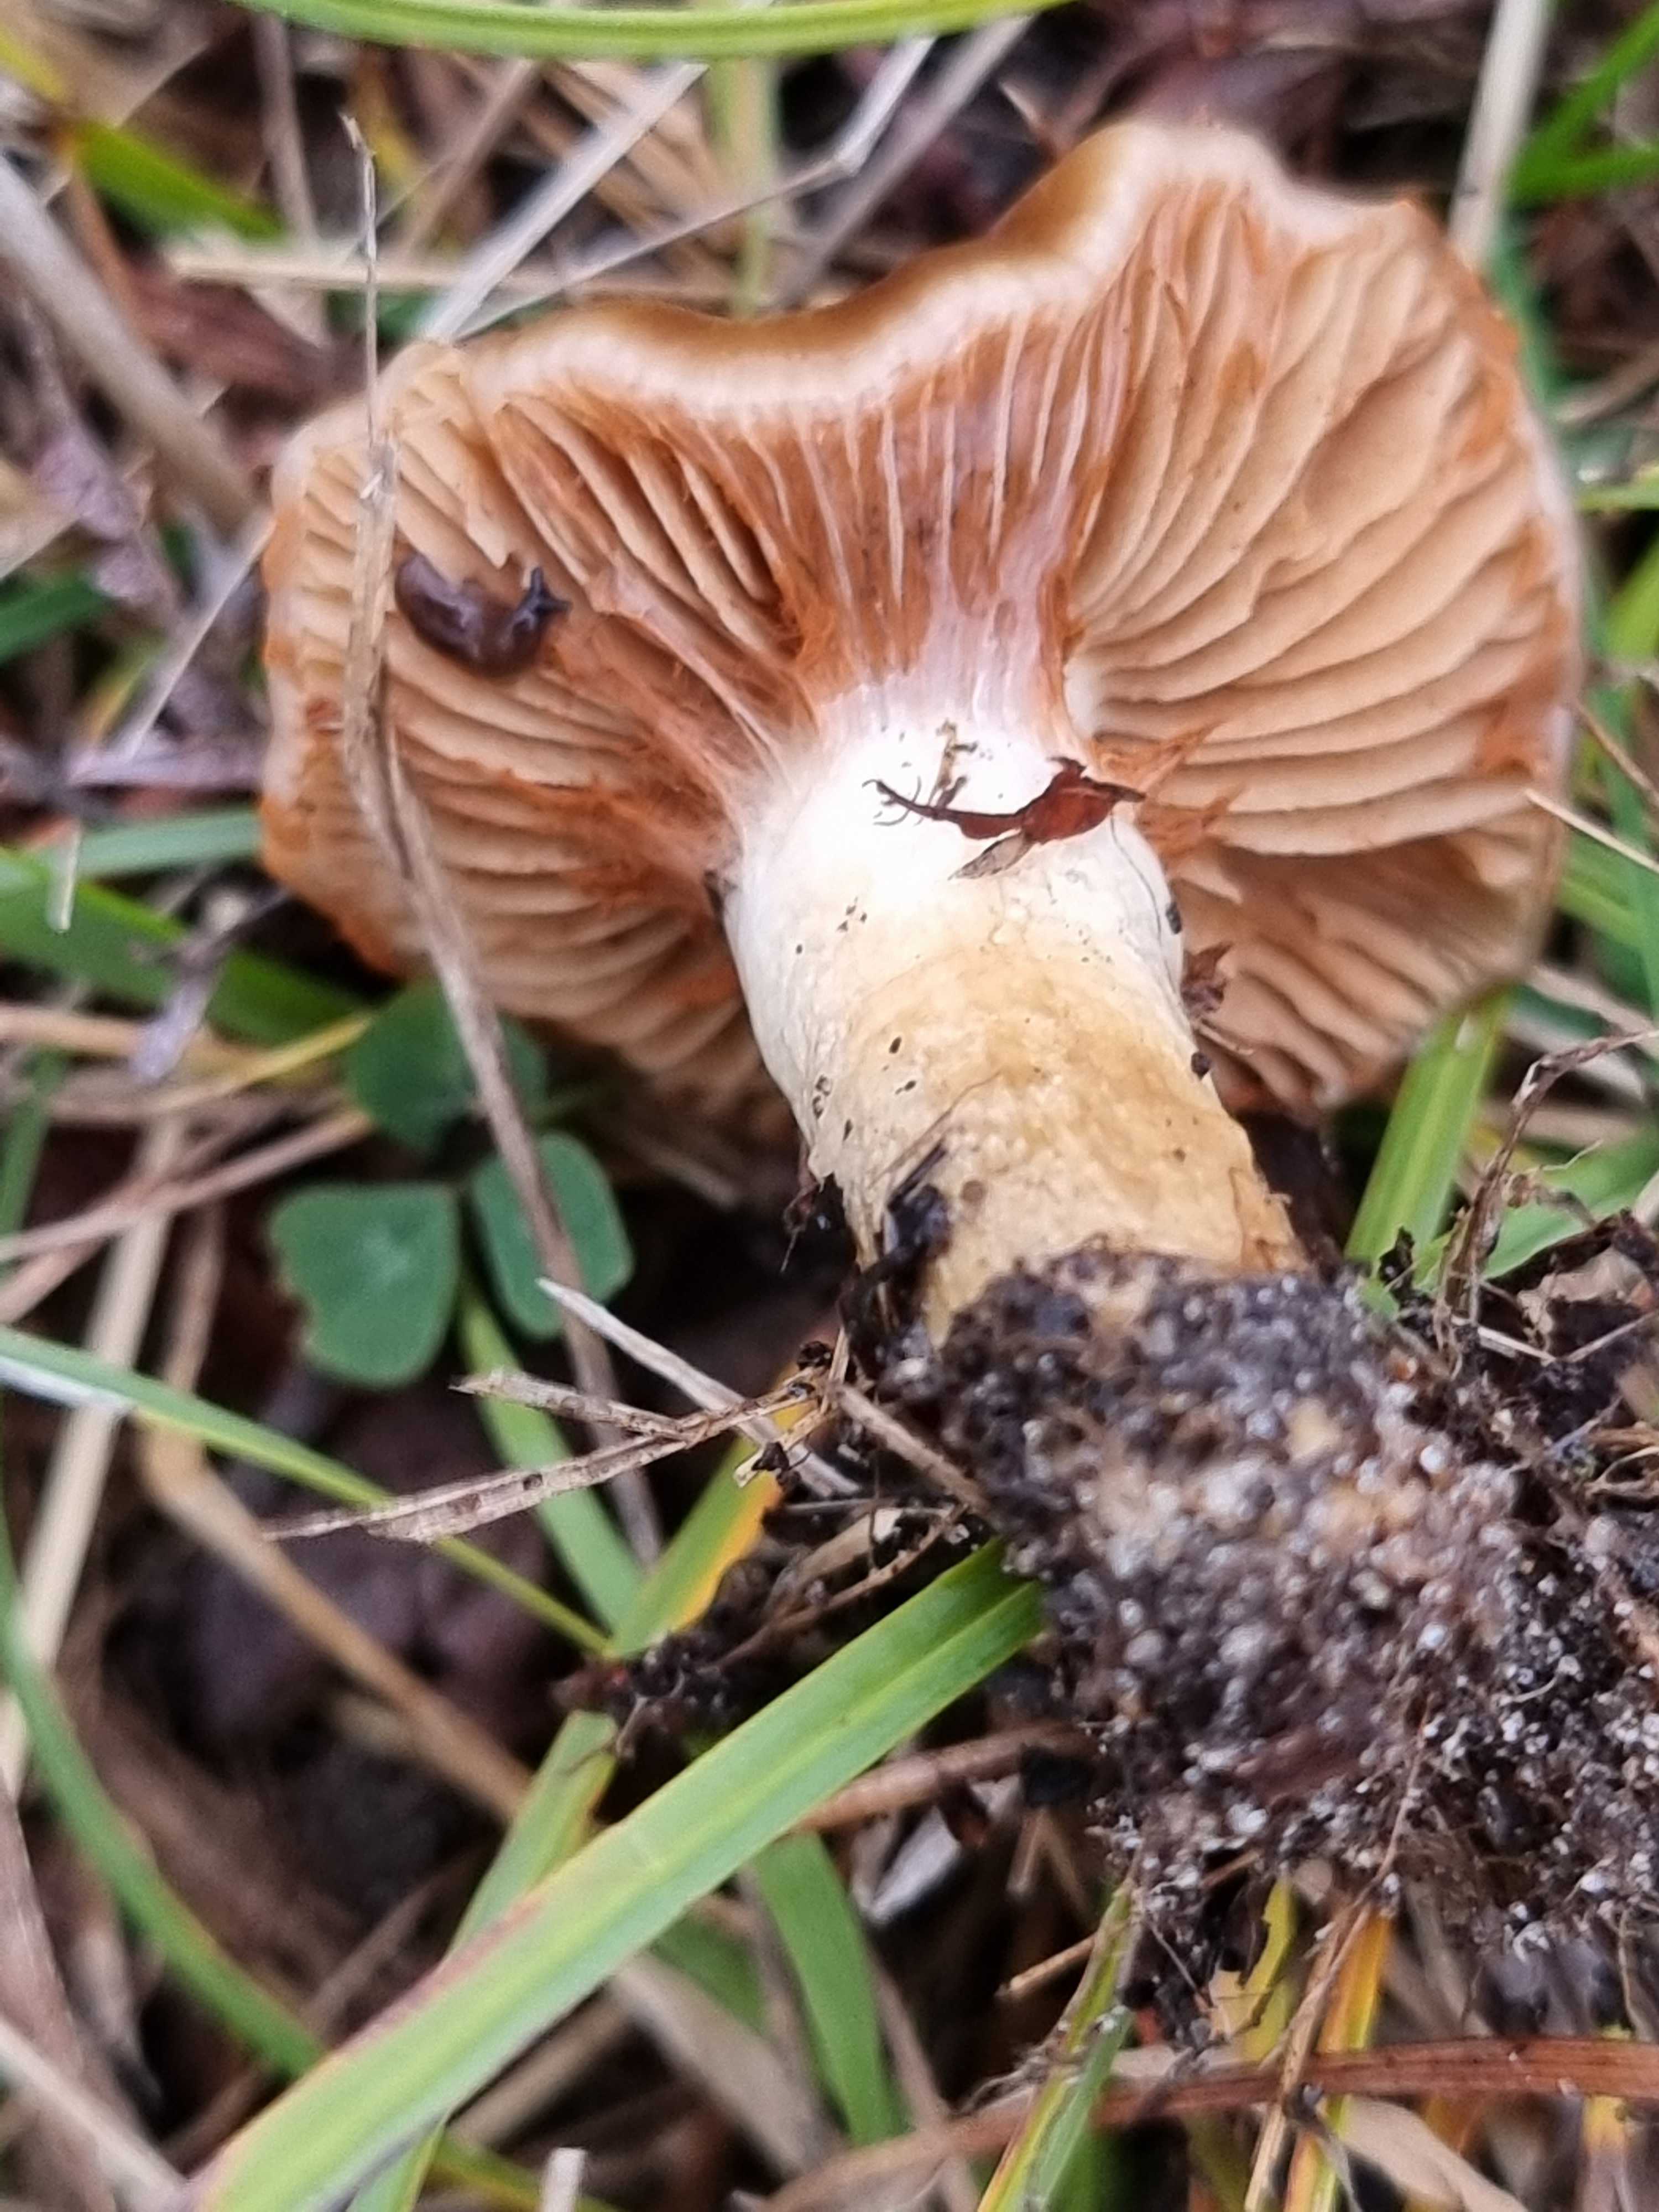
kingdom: Fungi
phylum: Basidiomycota
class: Agaricomycetes
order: Agaricales
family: Cortinariaceae
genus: Cortinarius
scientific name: Cortinarius trivialis
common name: brunslimet slørhat
